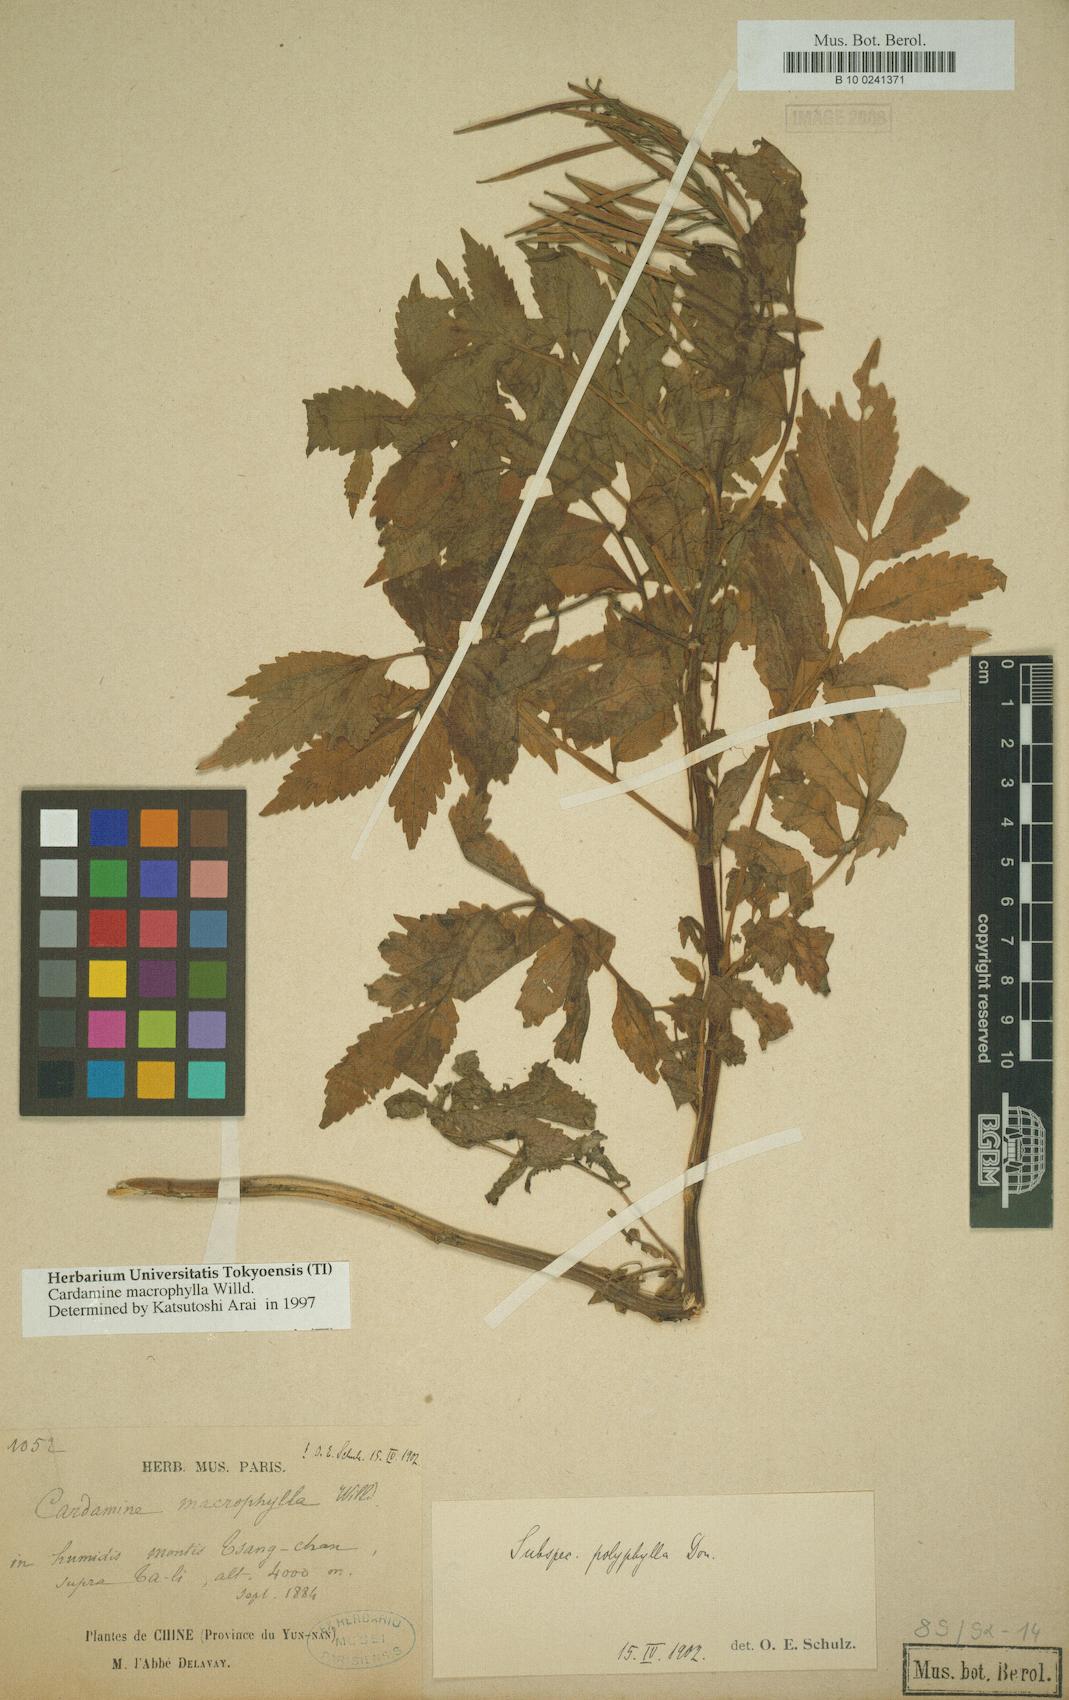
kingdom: Plantae
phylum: Tracheophyta
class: Magnoliopsida
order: Brassicales
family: Brassicaceae
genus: Cardamine
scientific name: Cardamine macrophylla
